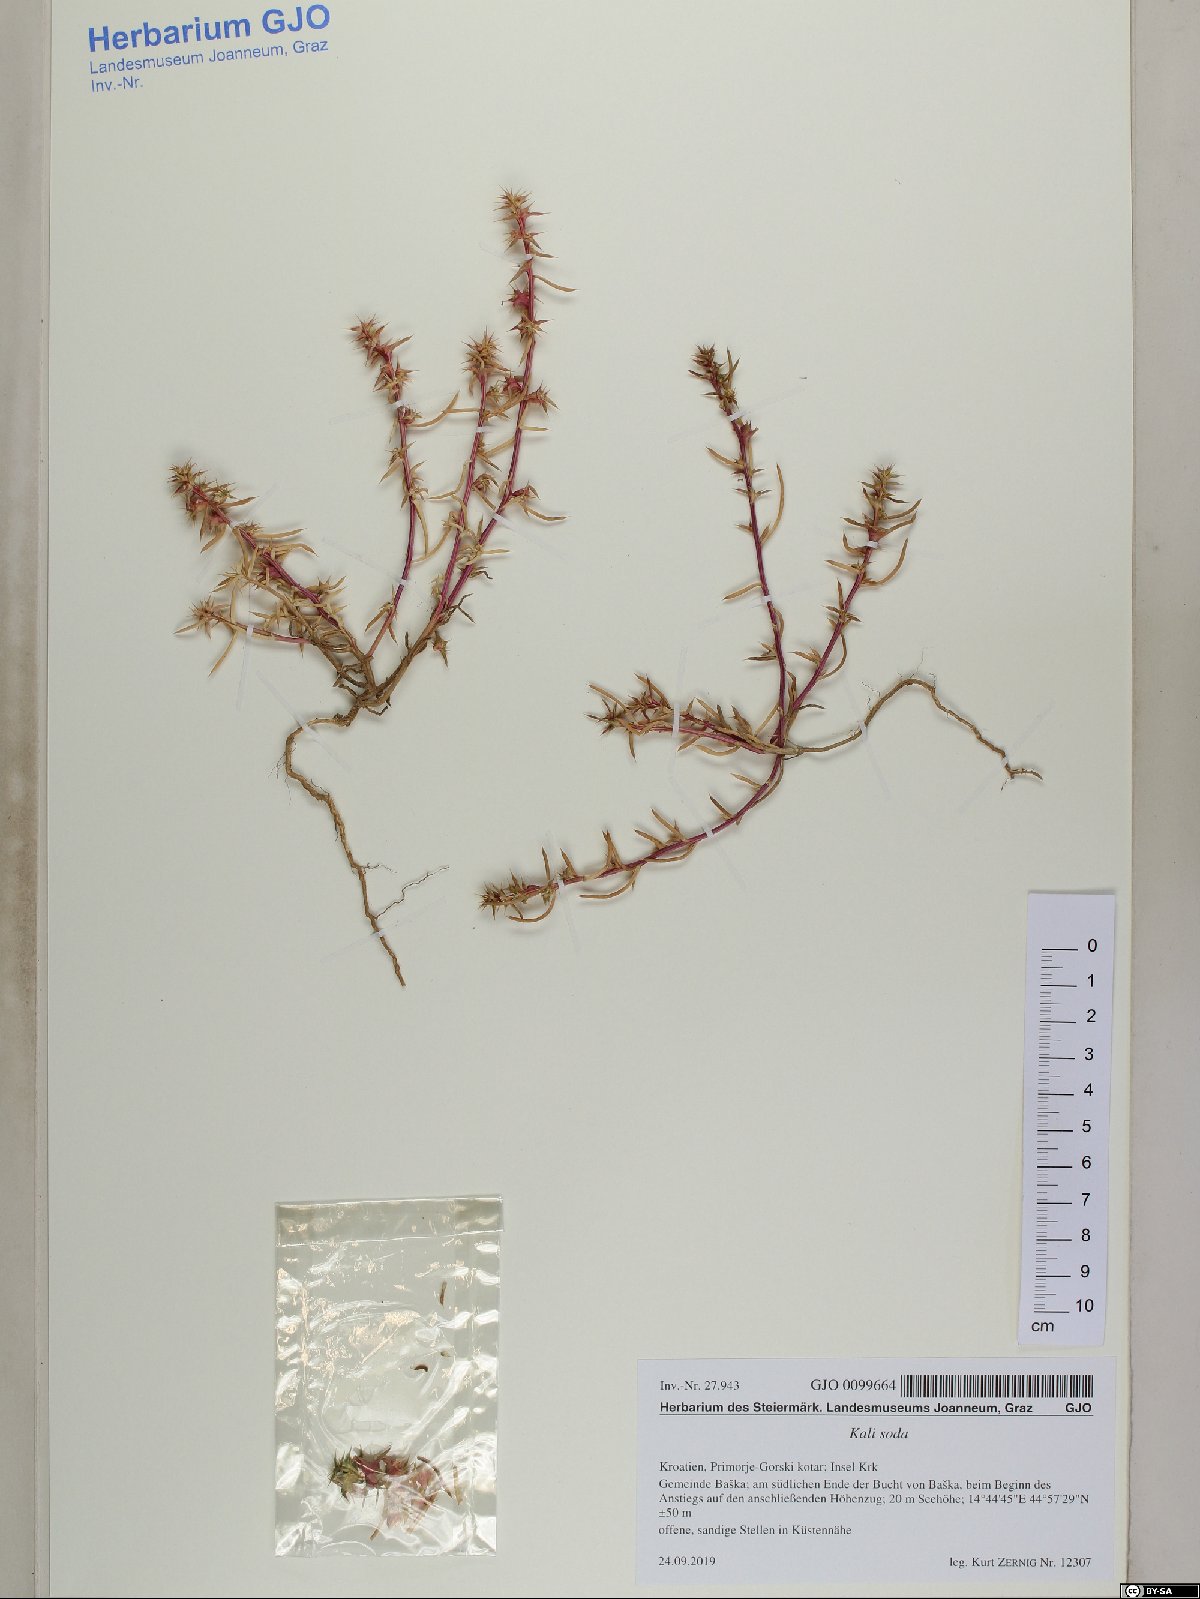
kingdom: Plantae
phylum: Tracheophyta
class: Magnoliopsida
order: Caryophyllales
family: Amaranthaceae
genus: Salsola
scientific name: Salsola kali
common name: Saltwort
